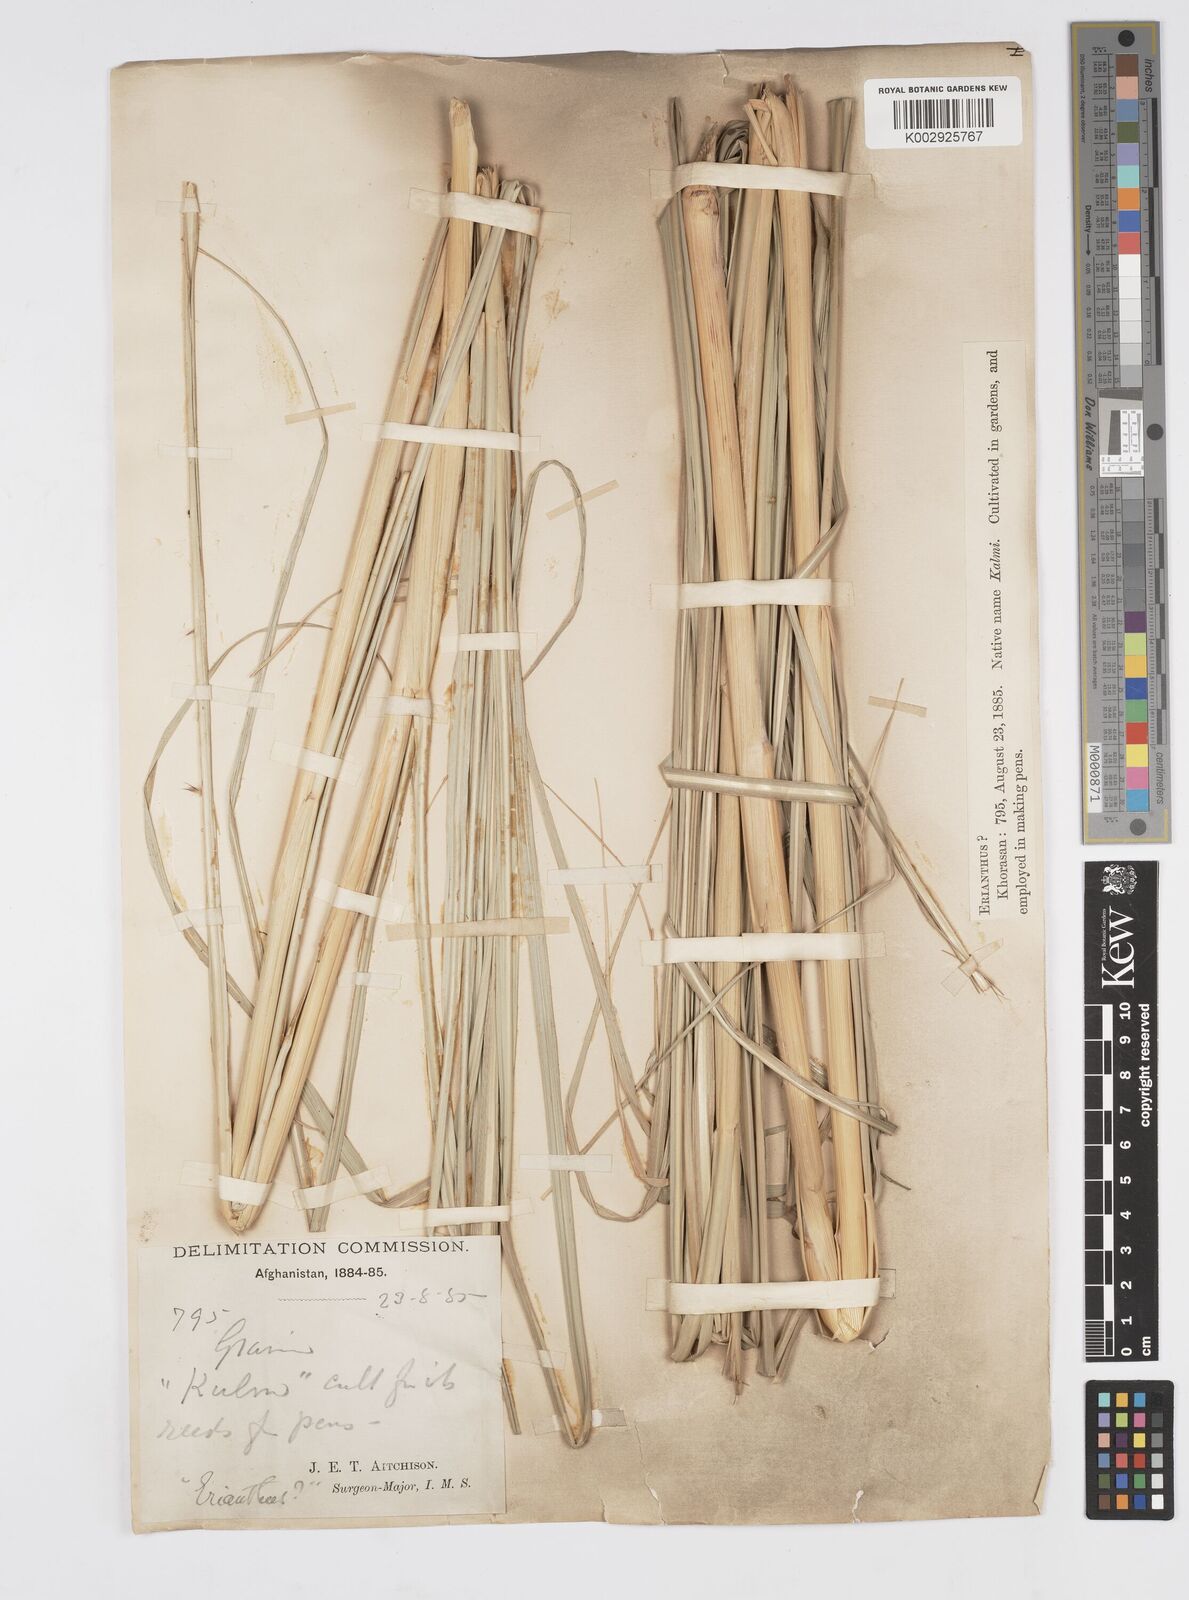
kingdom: Plantae
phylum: Tracheophyta
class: Liliopsida
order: Poales
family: Poaceae
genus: Tripidium
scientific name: Tripidium ravennae
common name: Ravenna grass
